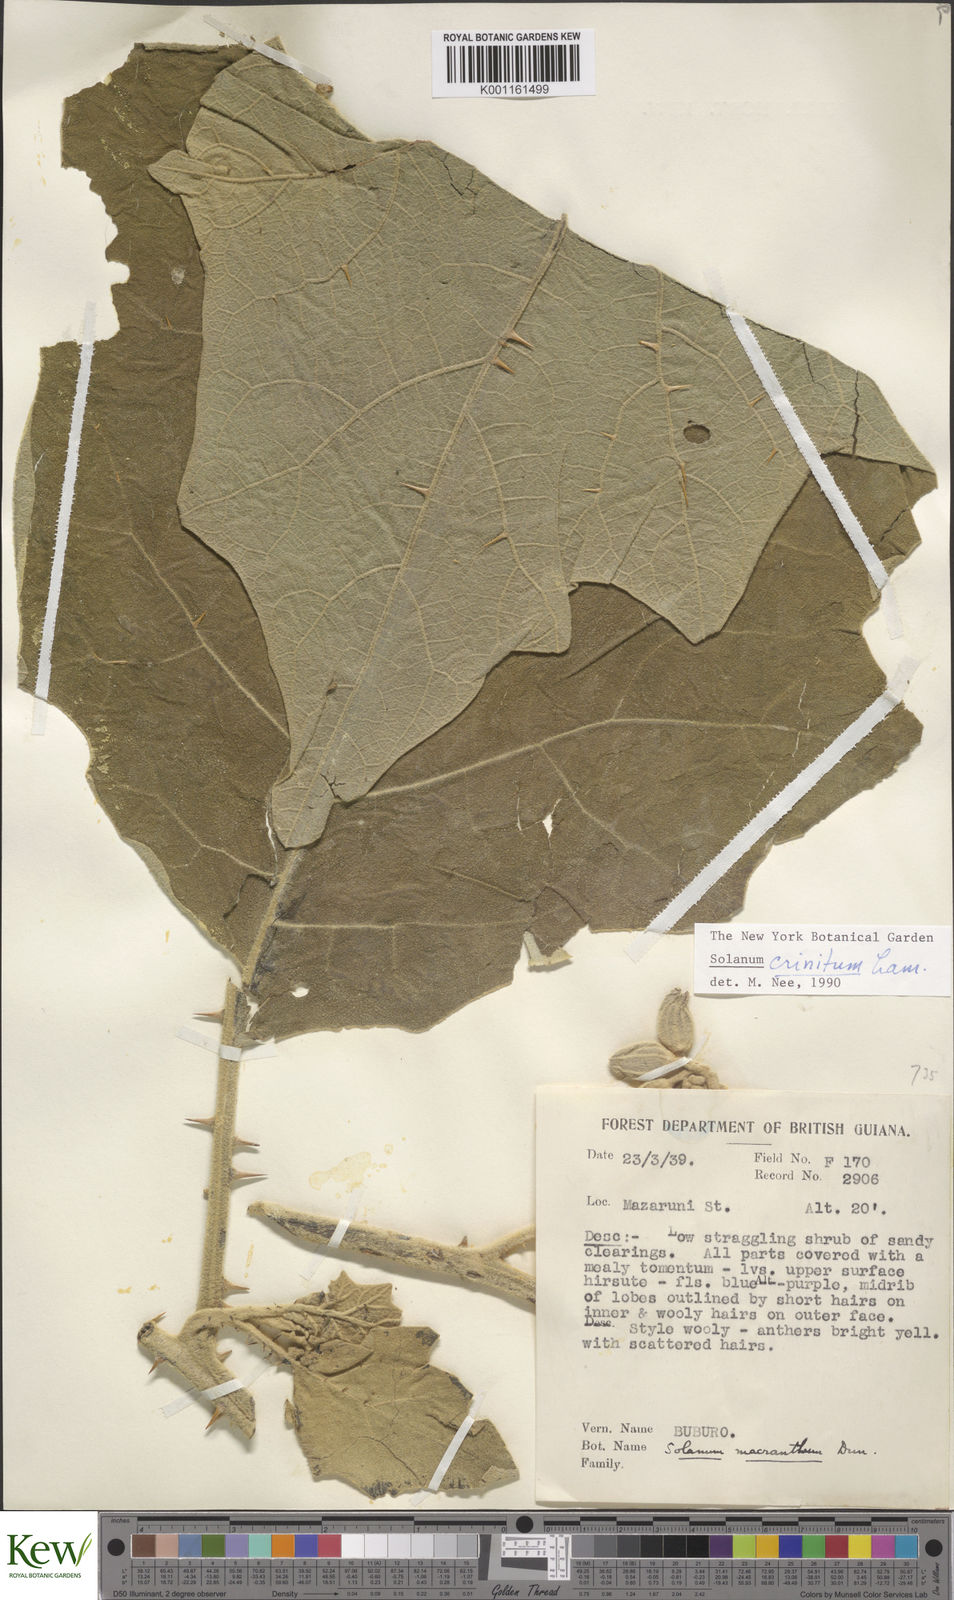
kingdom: Plantae
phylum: Tracheophyta
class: Magnoliopsida
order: Solanales
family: Solanaceae
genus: Solanum
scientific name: Solanum crinitum
